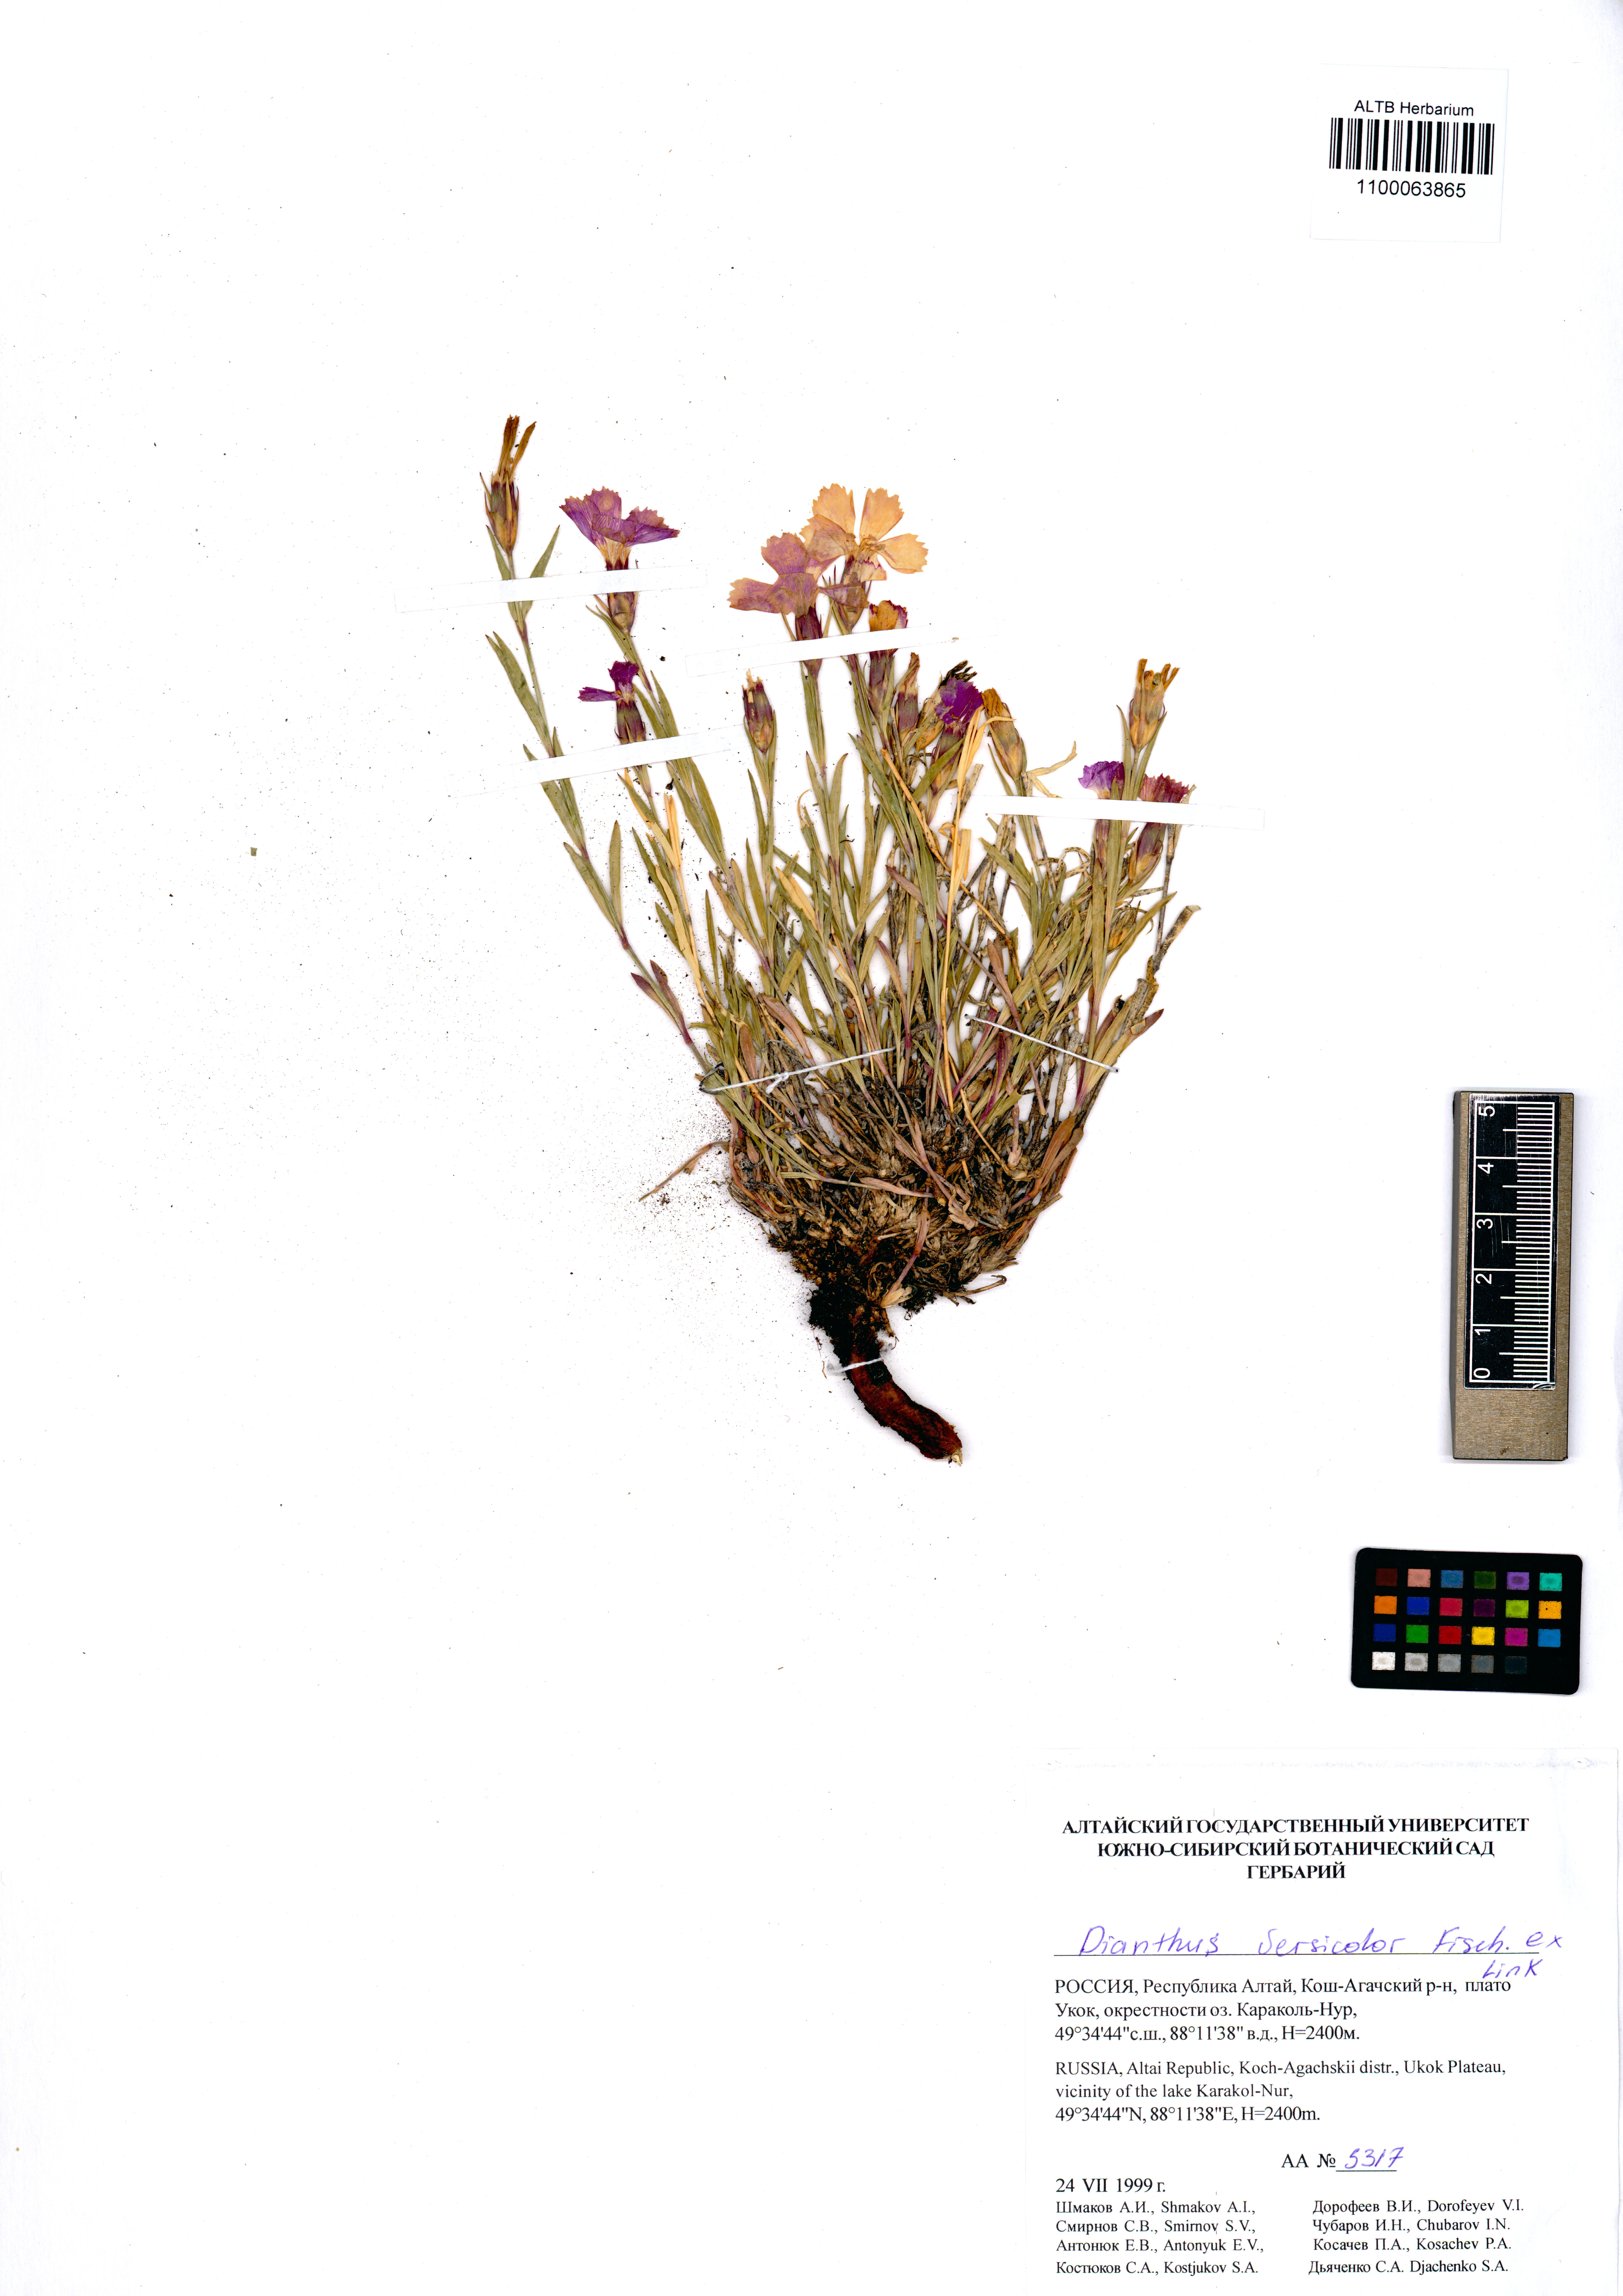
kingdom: Plantae
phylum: Tracheophyta
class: Magnoliopsida
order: Caryophyllales
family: Caryophyllaceae
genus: Dianthus
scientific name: Dianthus chinensis
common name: Rainbow pink
